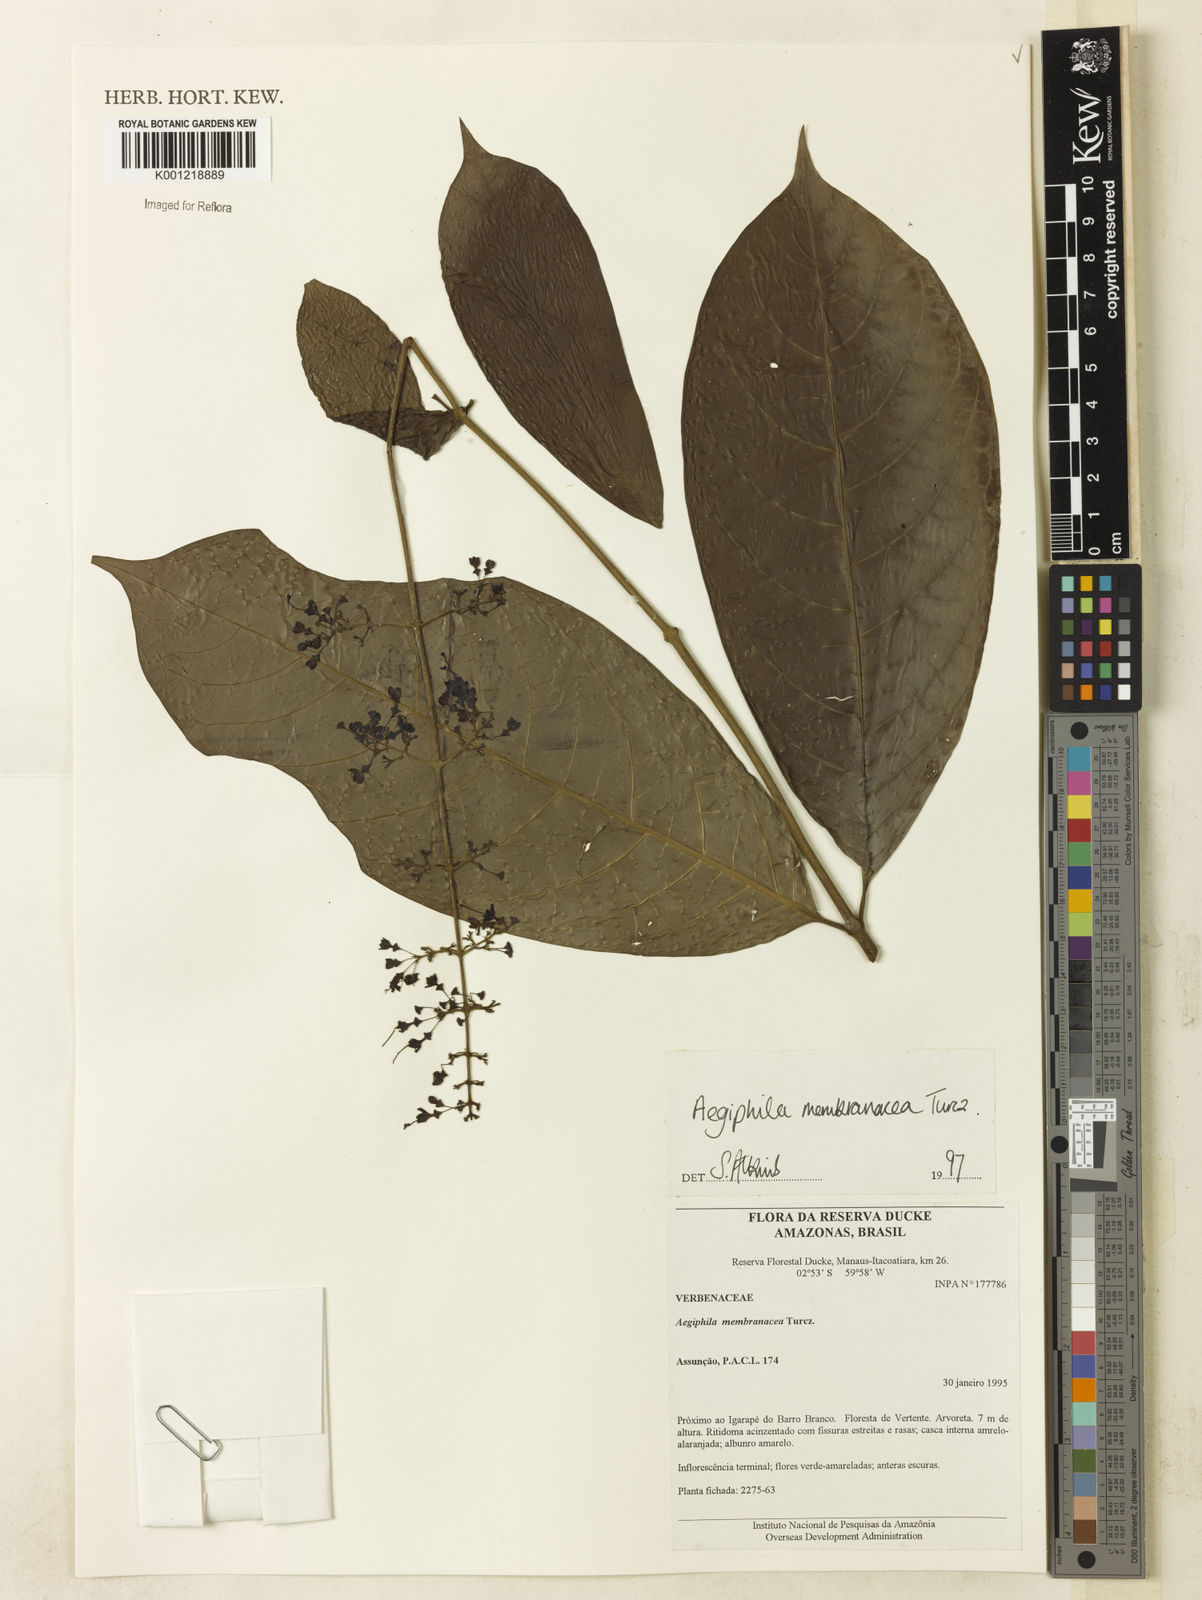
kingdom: Plantae
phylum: Tracheophyta
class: Magnoliopsida
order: Lamiales
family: Lamiaceae
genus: Aegiphila
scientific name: Aegiphila membranacea
